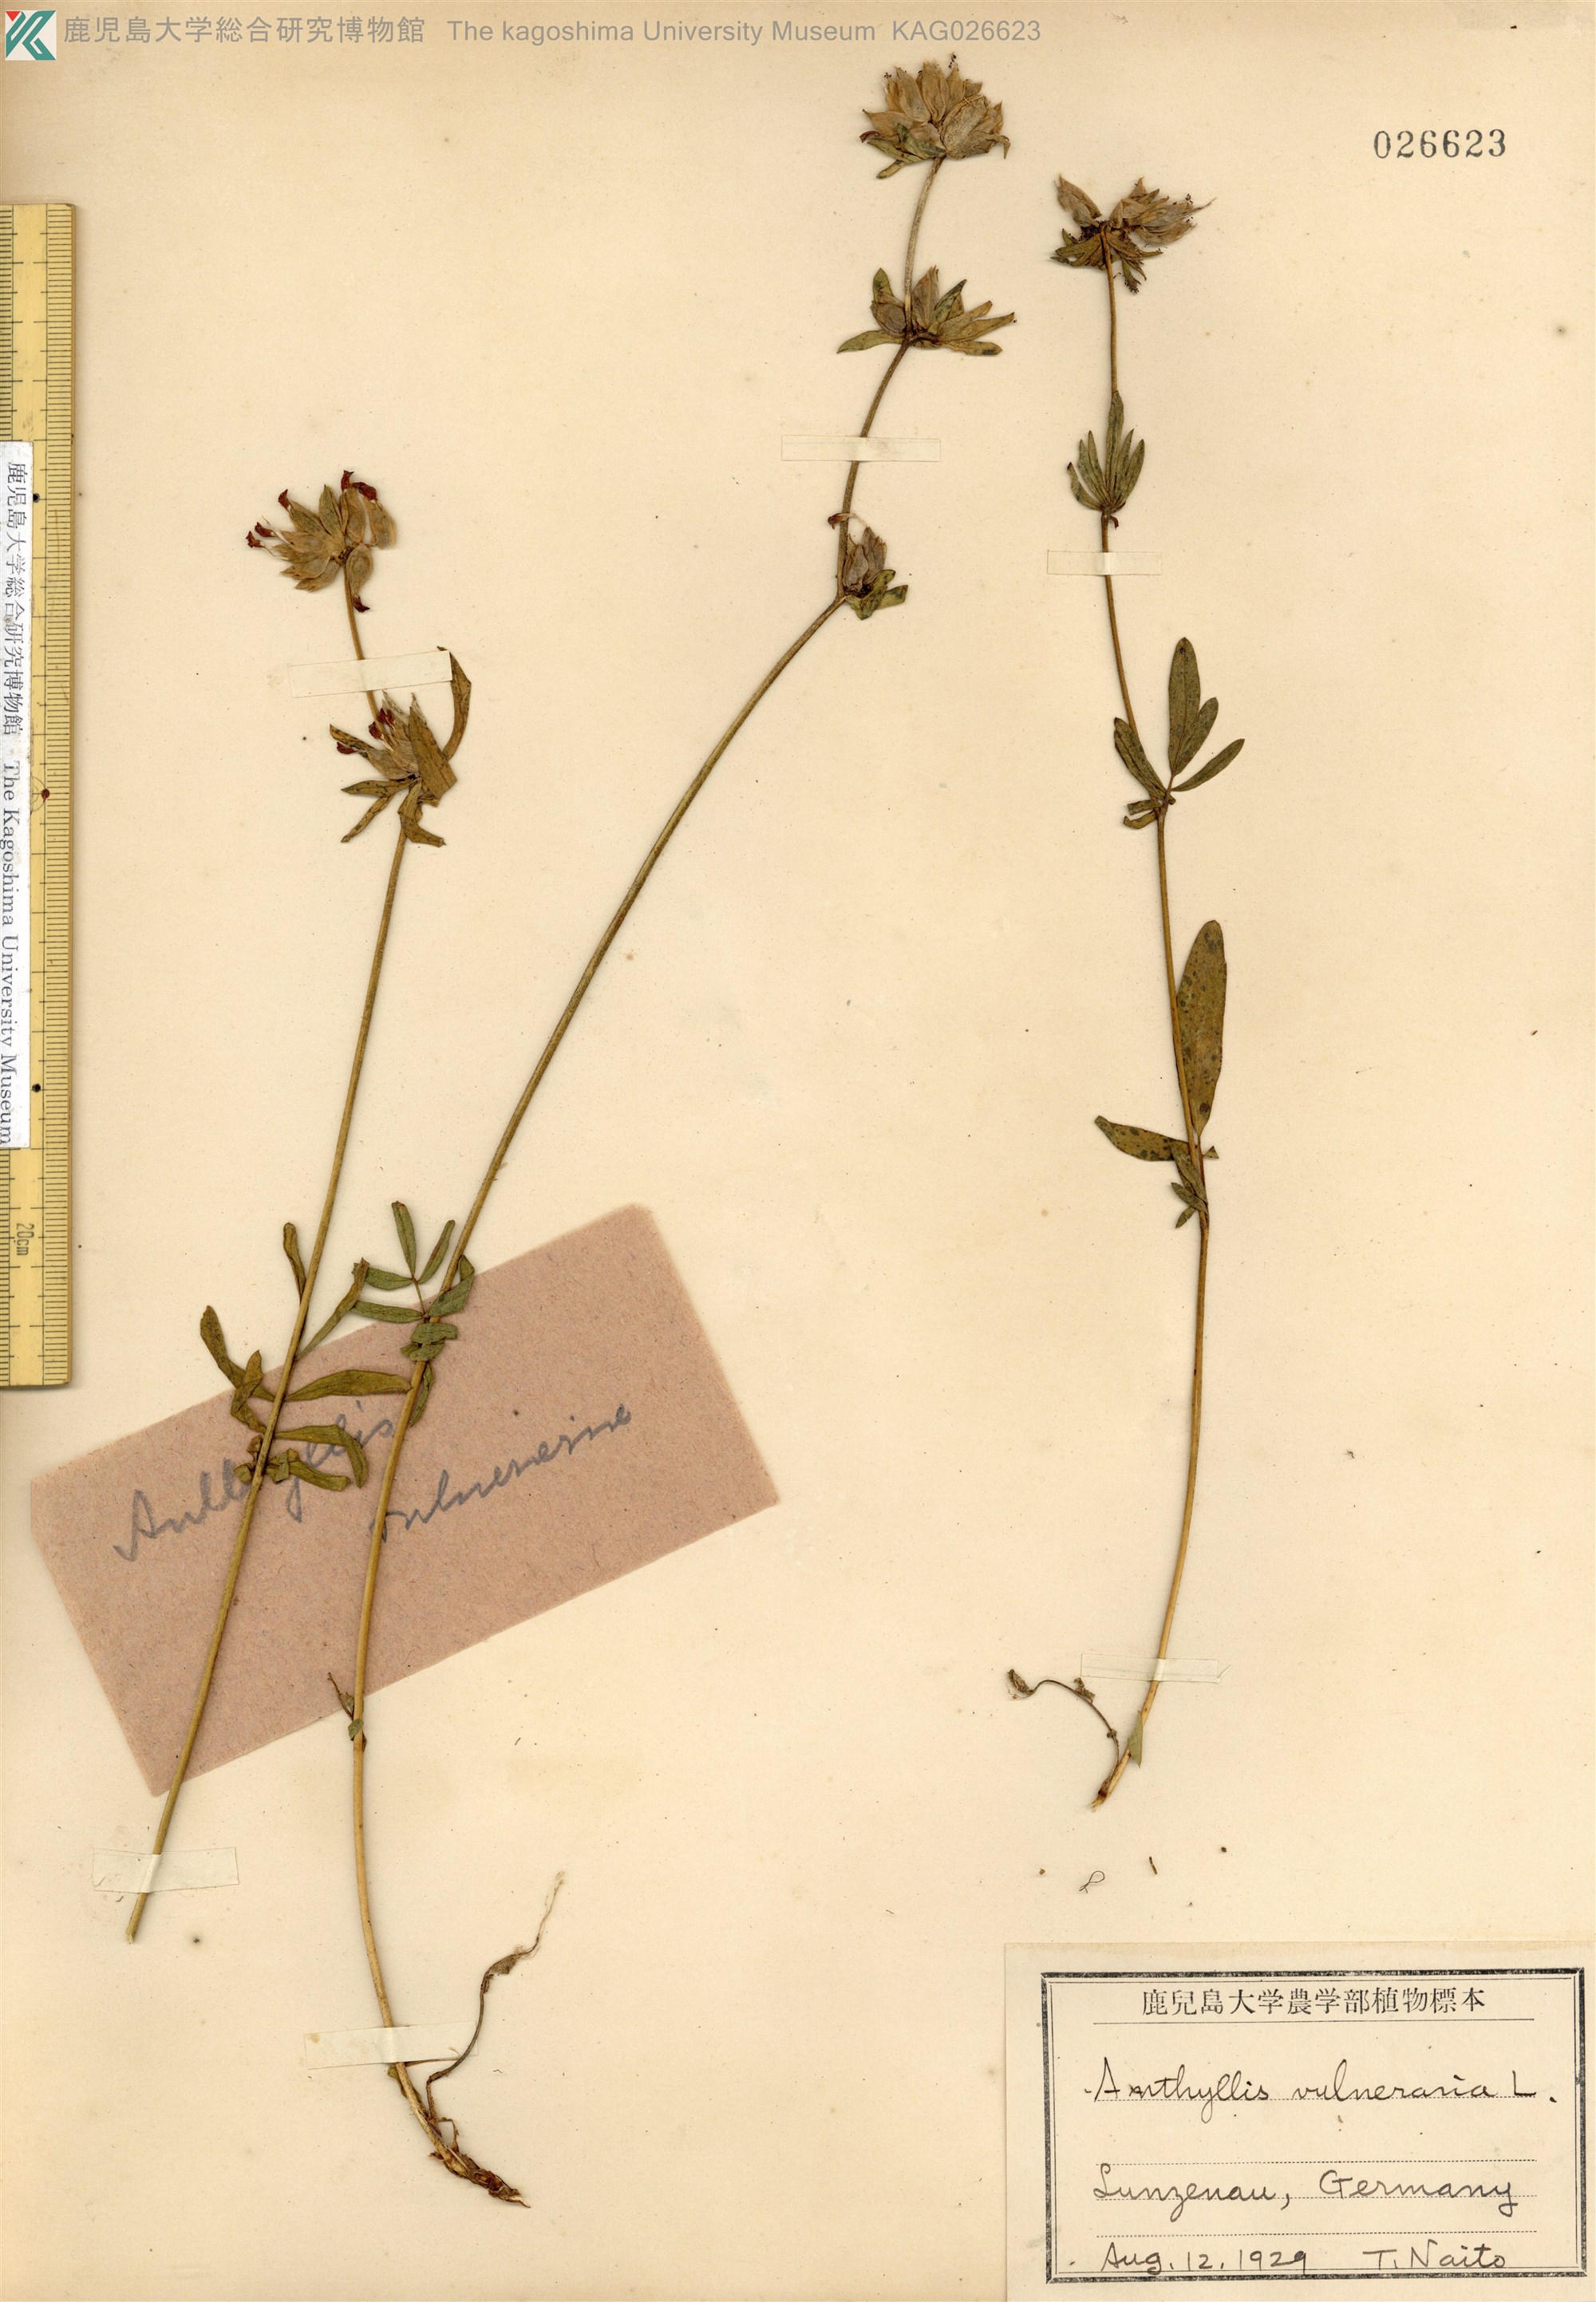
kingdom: Plantae
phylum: Tracheophyta
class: Magnoliopsida
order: Fabales
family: Fabaceae
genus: Anthyllis
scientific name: Anthyllis vulneraria
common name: Kidney vetch
